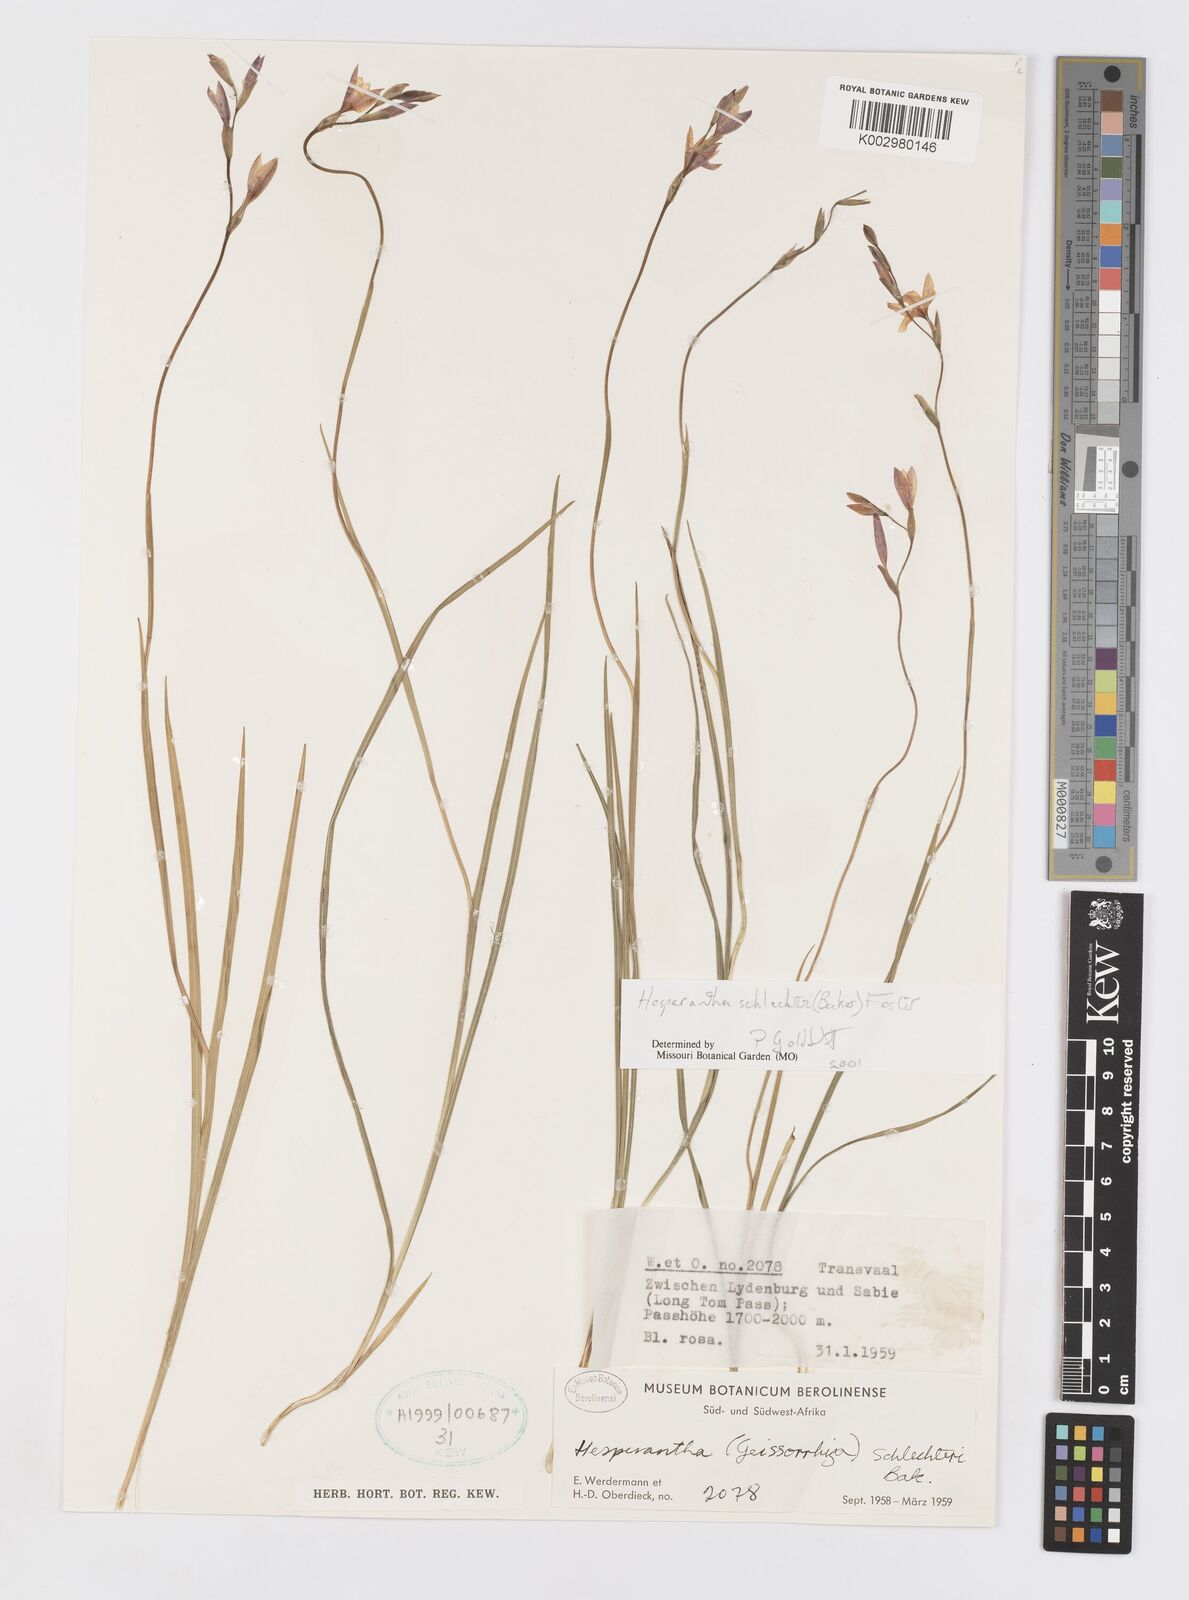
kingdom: Plantae
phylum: Tracheophyta
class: Liliopsida
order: Asparagales
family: Iridaceae
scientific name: Iridaceae
